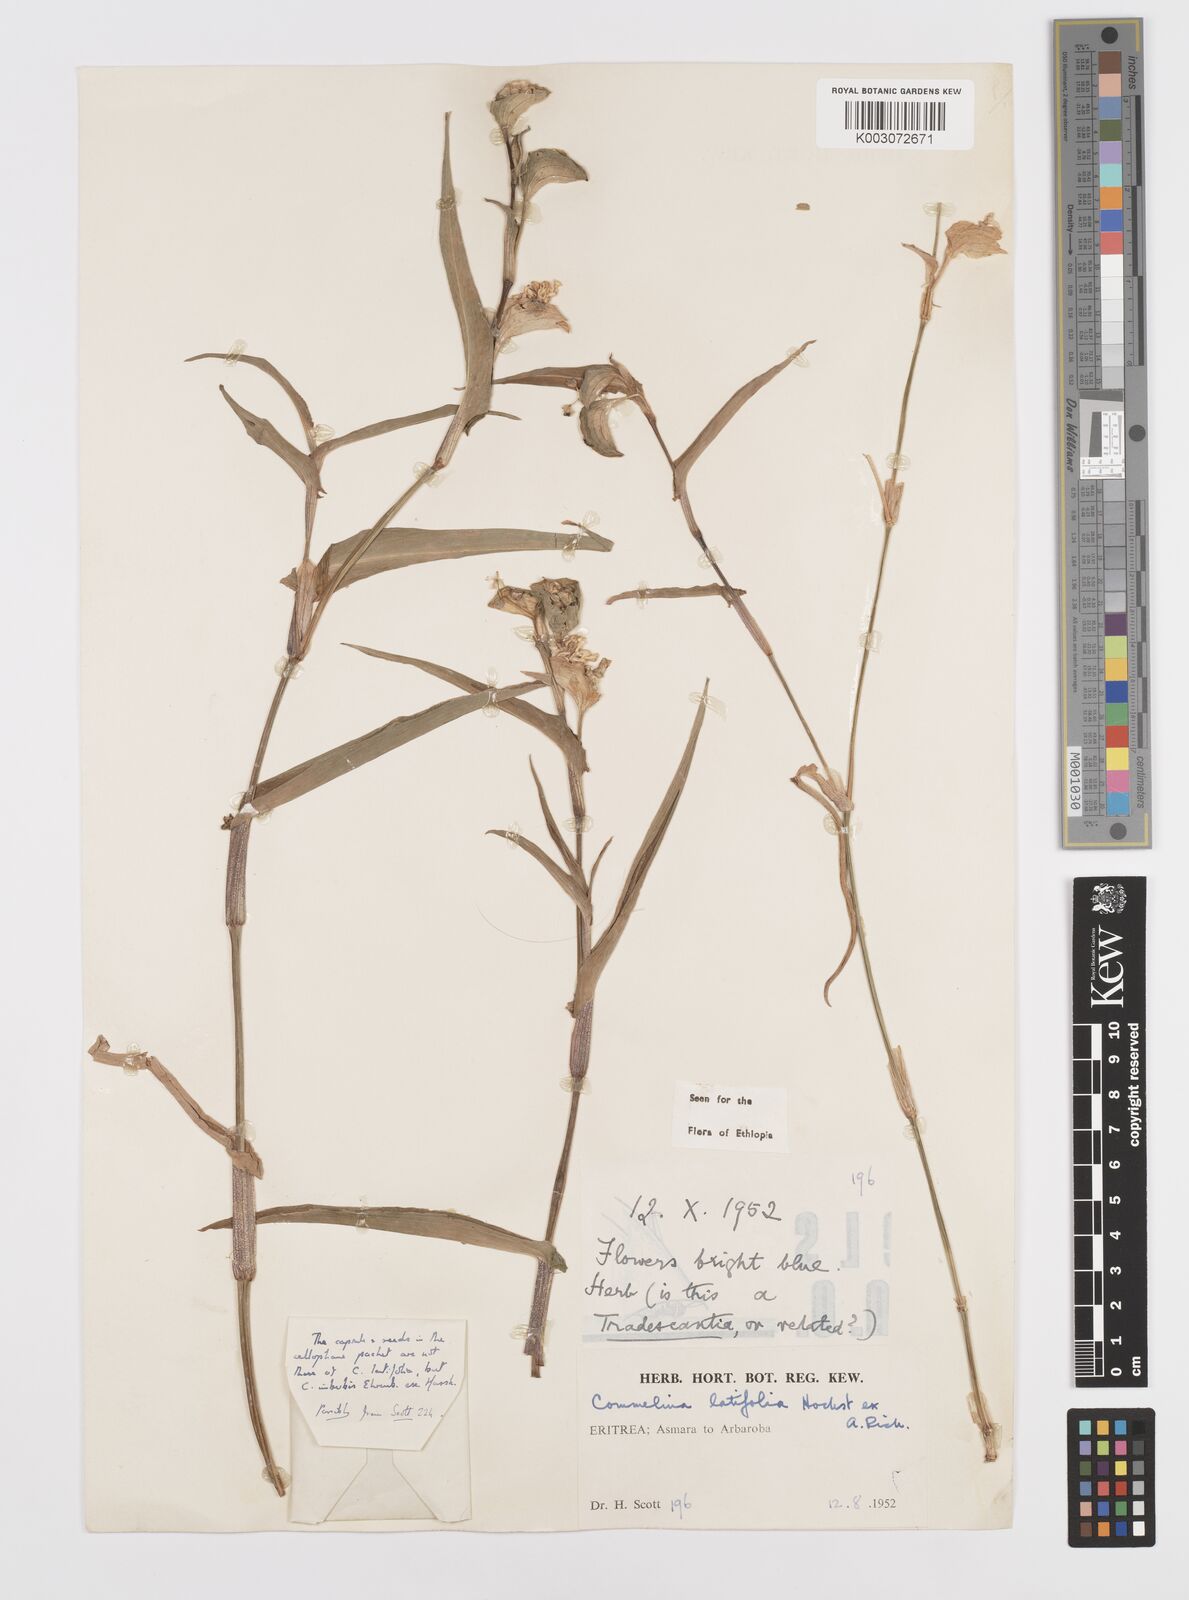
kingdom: Plantae
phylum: Tracheophyta
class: Liliopsida
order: Commelinales
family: Commelinaceae
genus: Commelina
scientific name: Commelina imberbis
